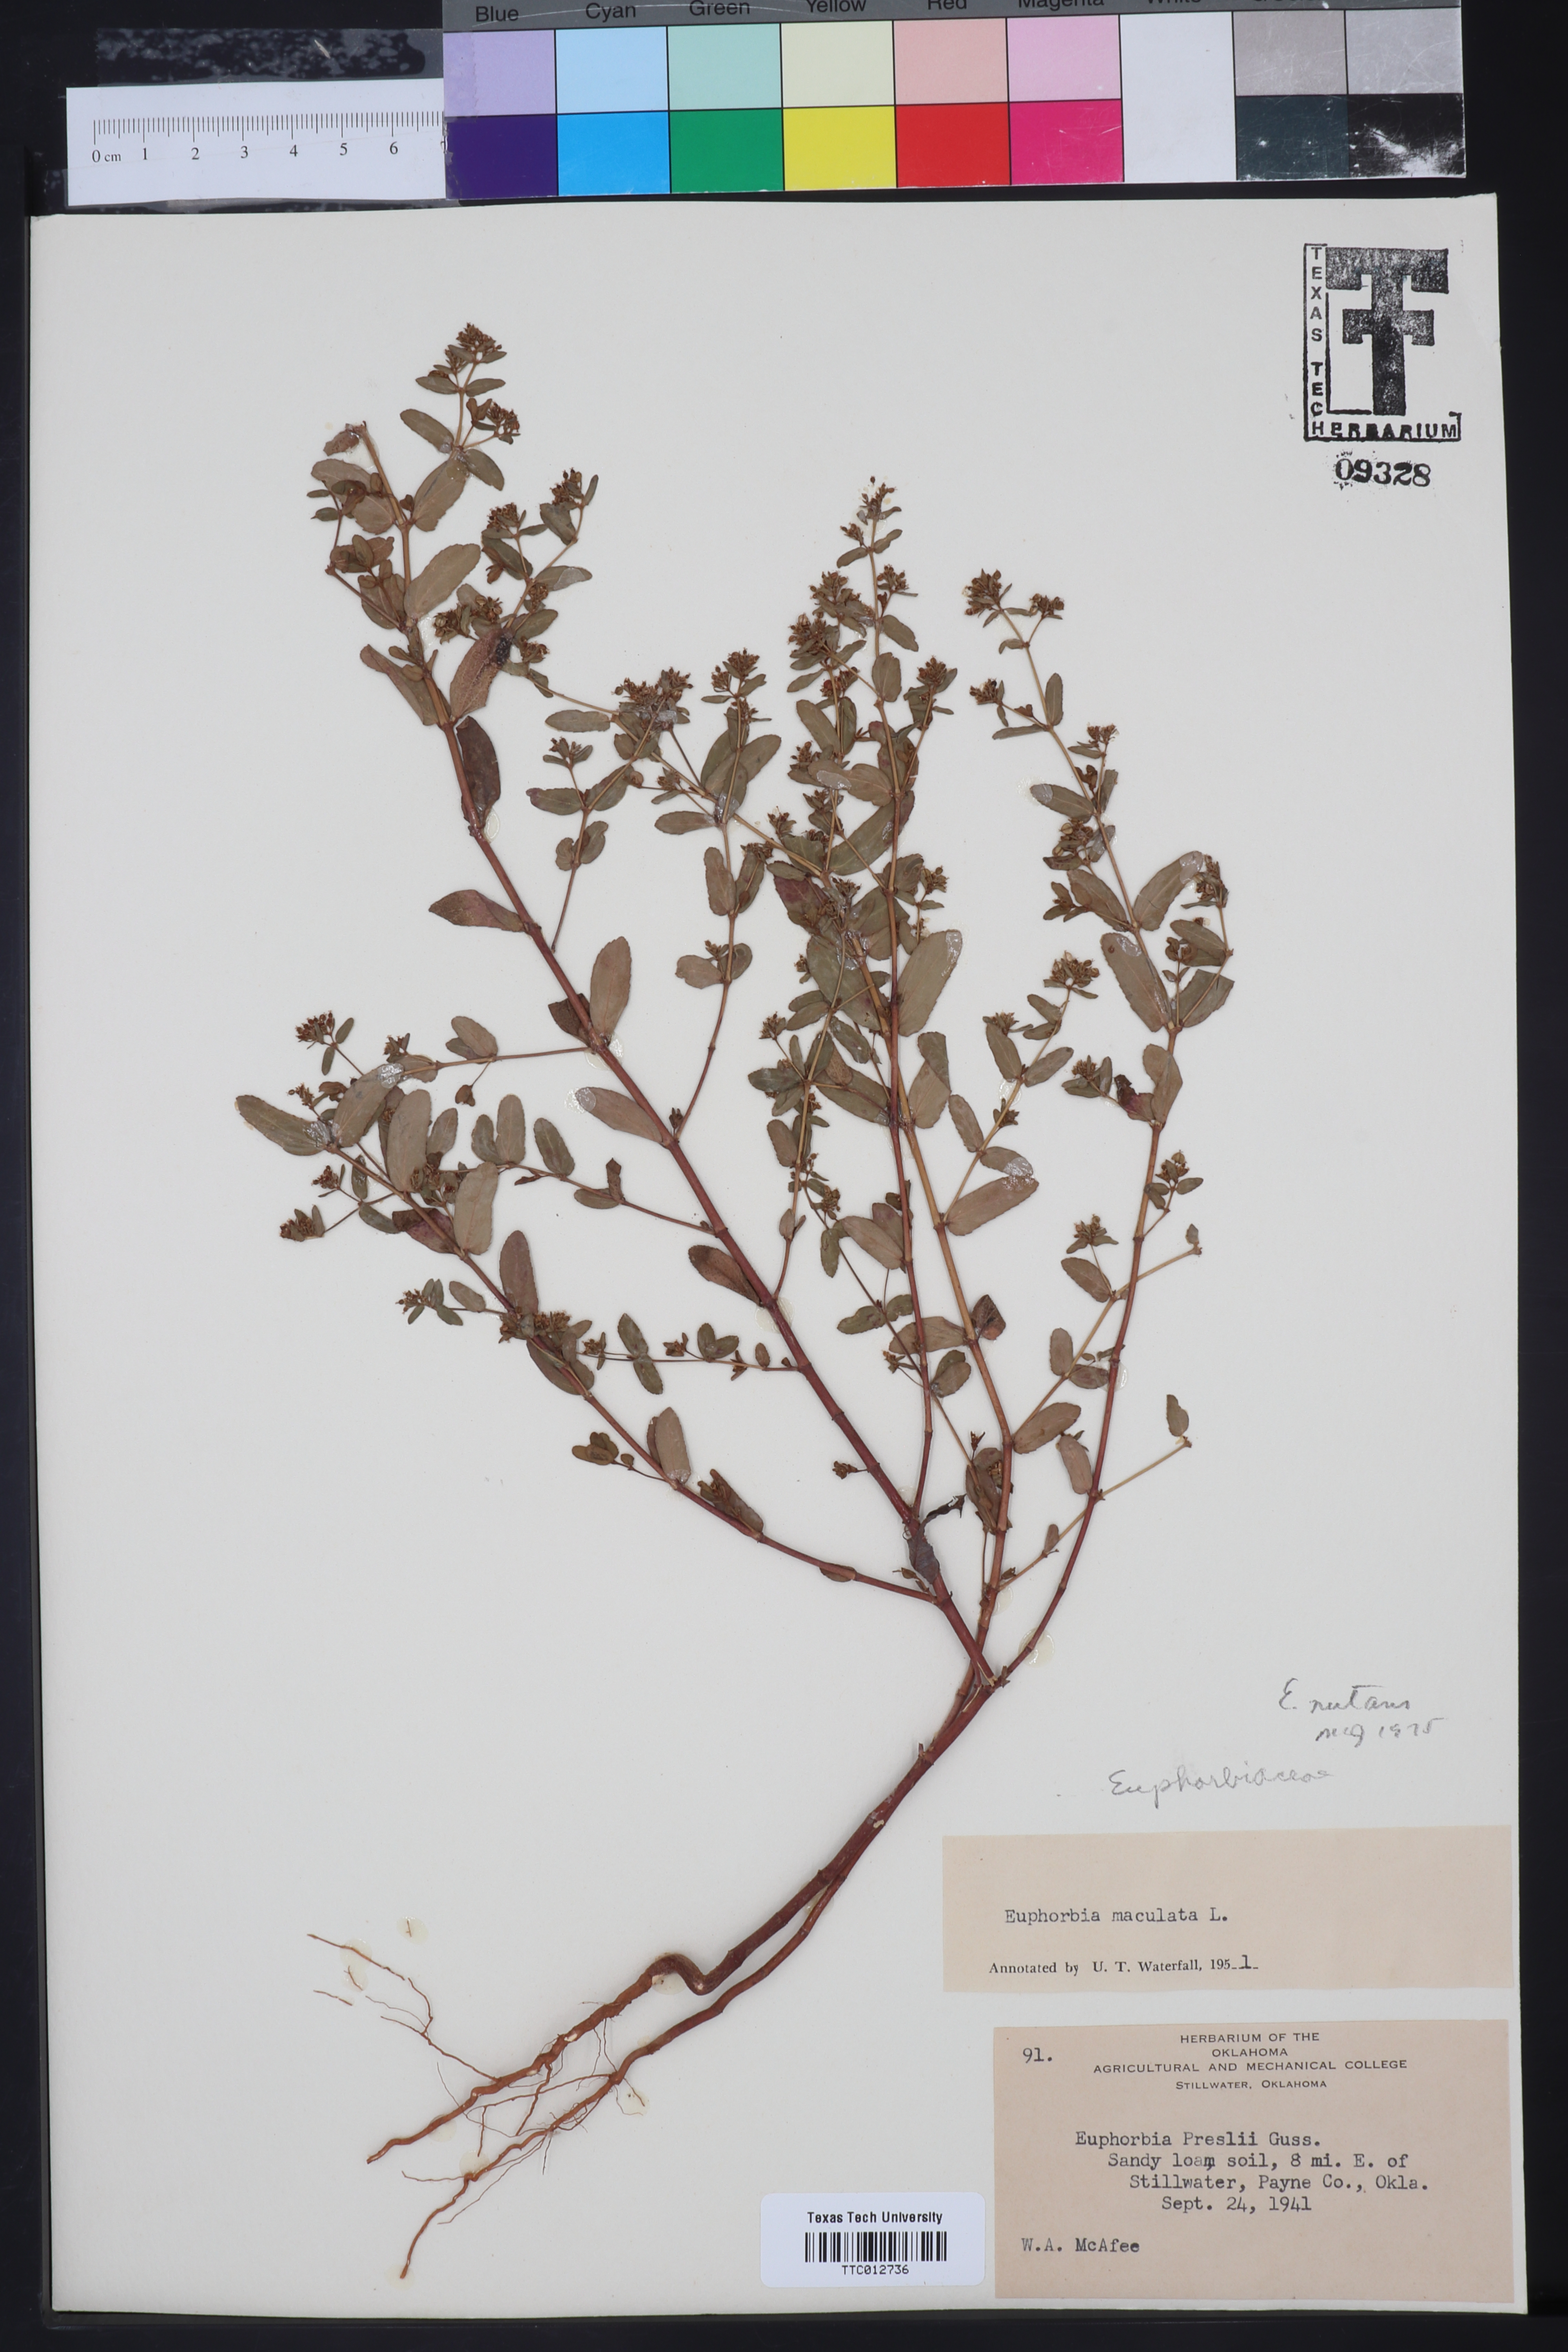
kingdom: Plantae
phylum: Tracheophyta
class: Magnoliopsida
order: Malpighiales
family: Euphorbiaceae
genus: Euphorbia
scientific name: Euphorbia maculata
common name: Spotted spurge
